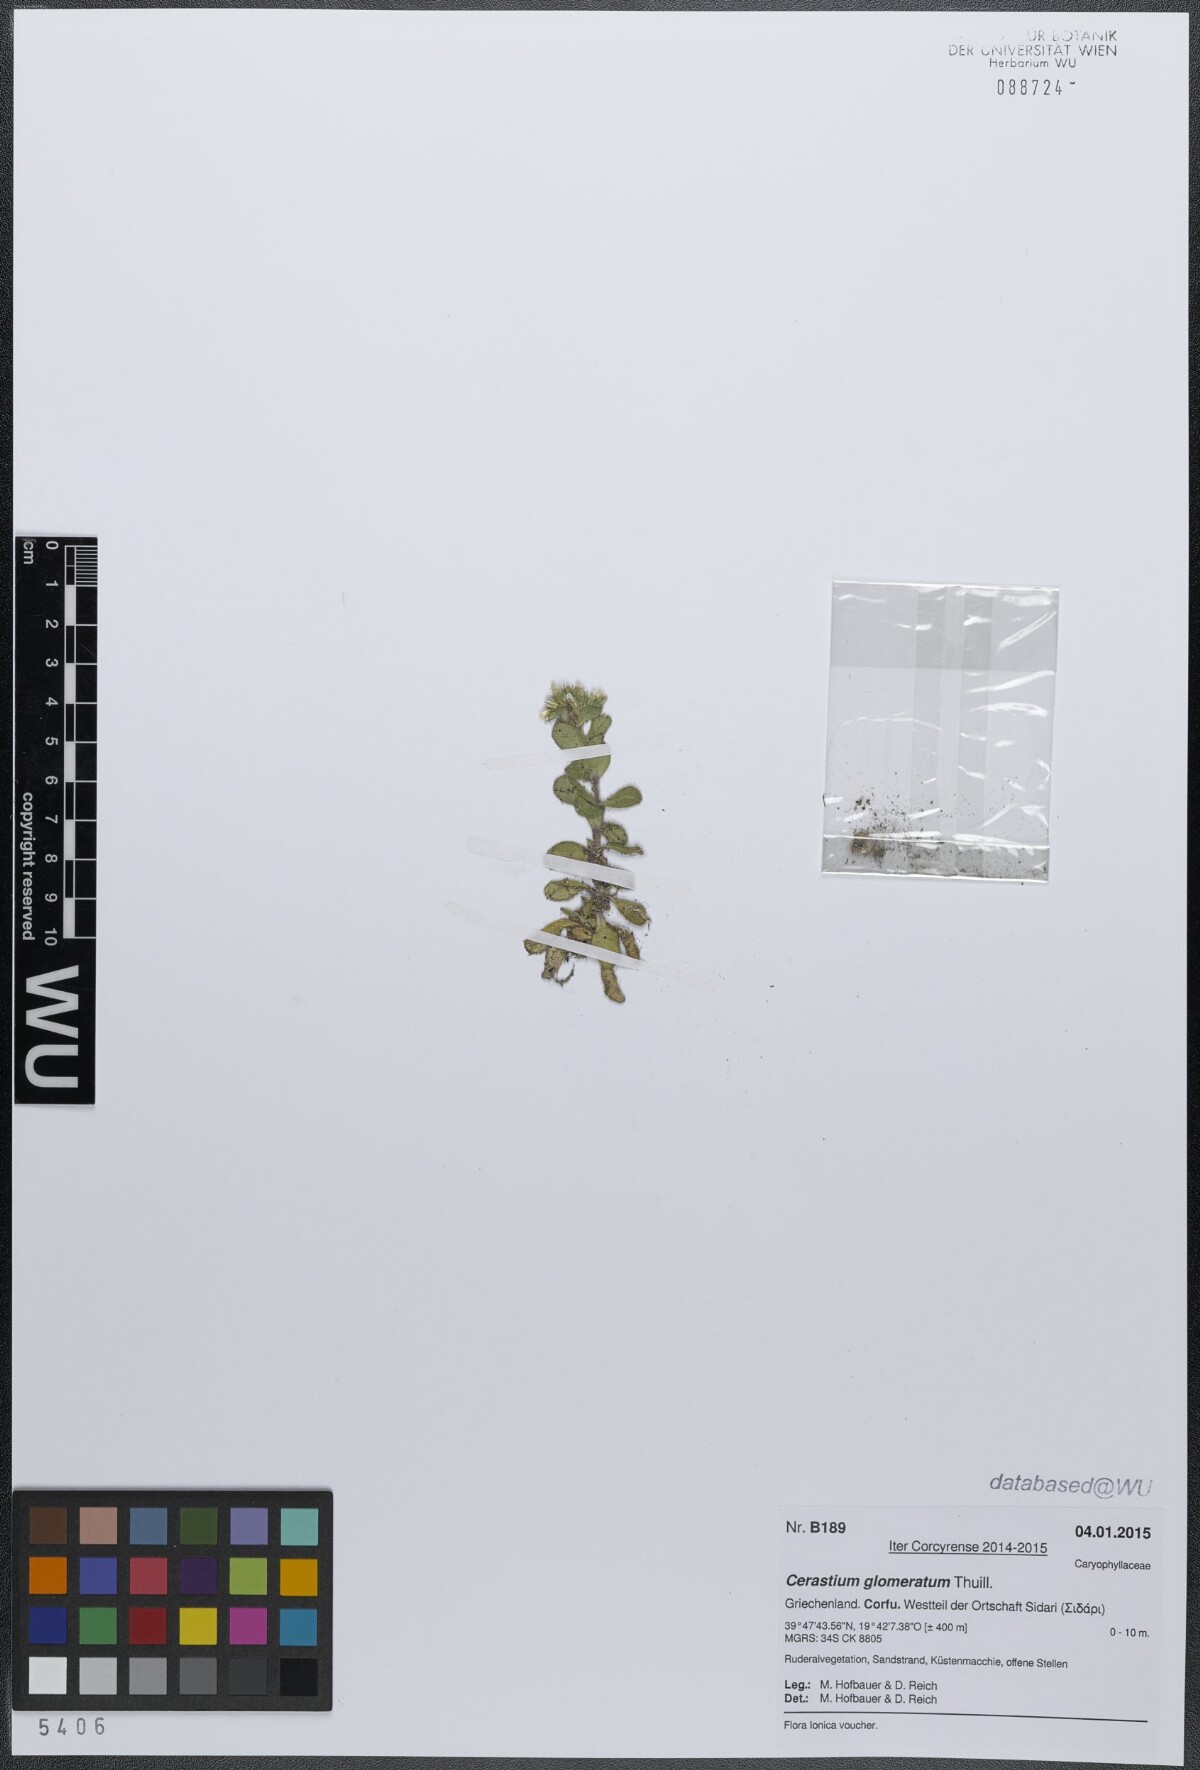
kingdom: Plantae
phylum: Tracheophyta
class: Magnoliopsida
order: Caryophyllales
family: Caryophyllaceae
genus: Cerastium
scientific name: Cerastium glomeratum
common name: Sticky chickweed
